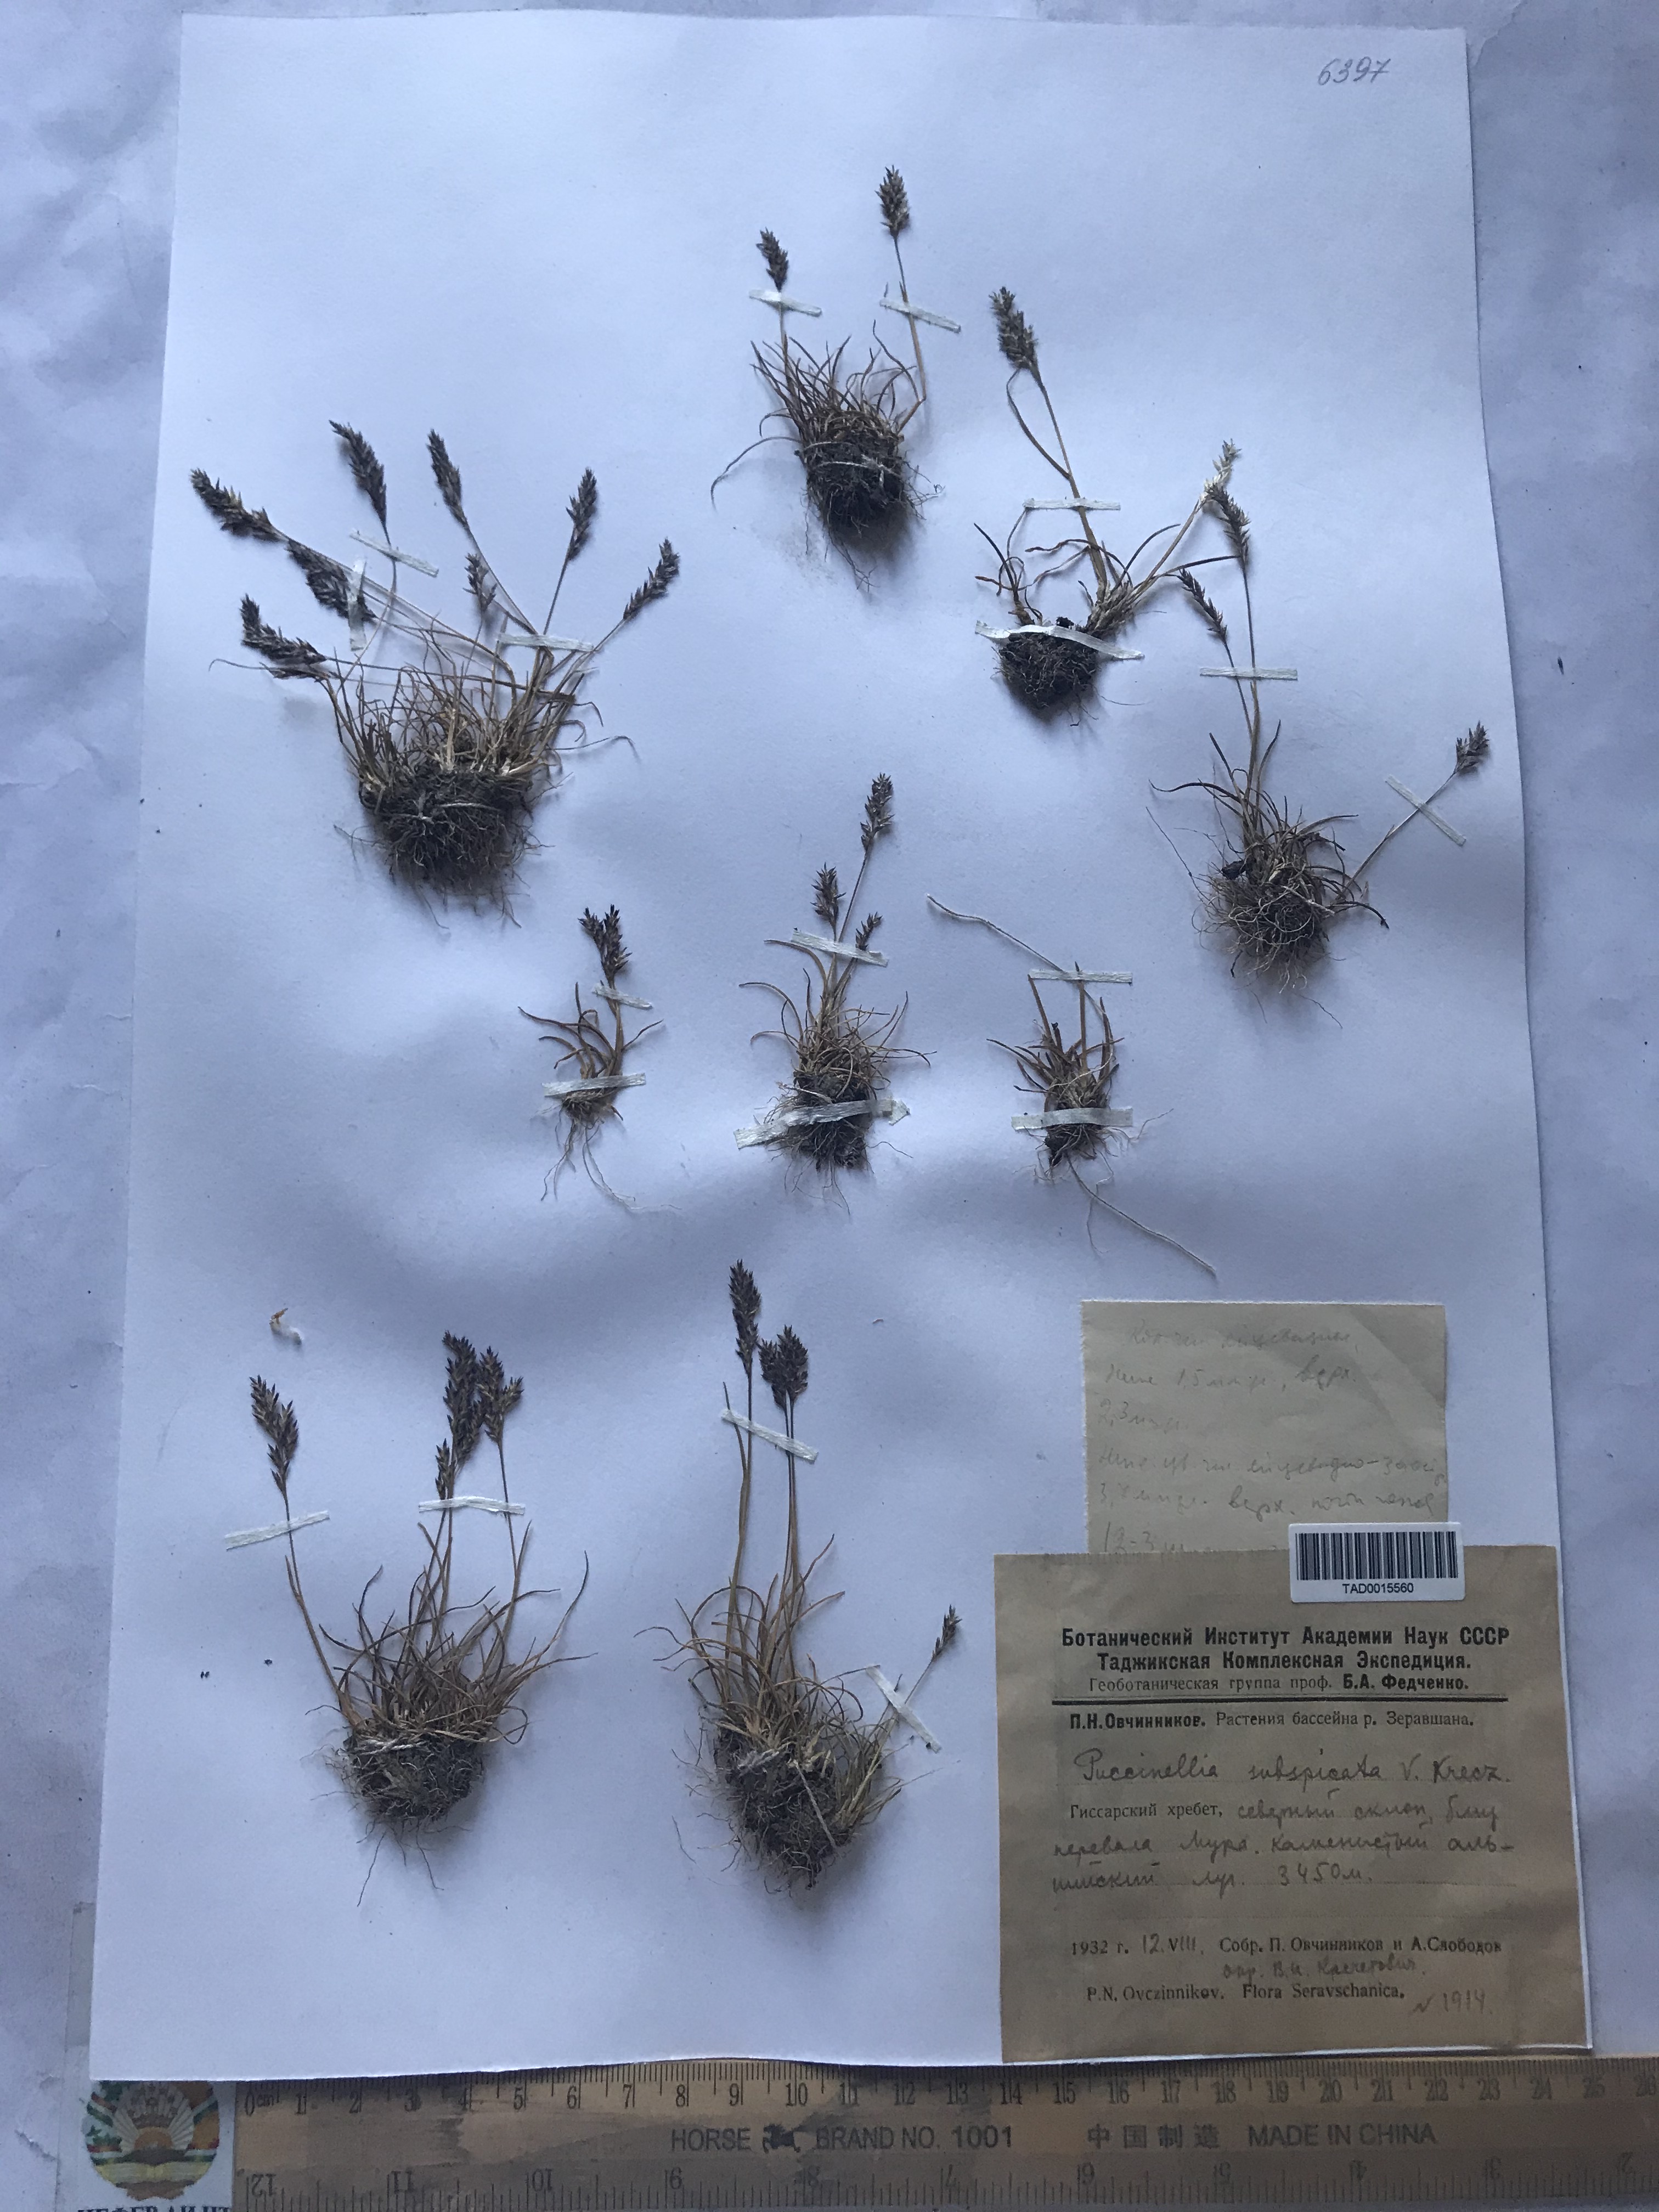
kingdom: Plantae
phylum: Tracheophyta
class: Liliopsida
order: Poales
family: Poaceae
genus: Puccinellia
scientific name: Puccinellia subspicata
